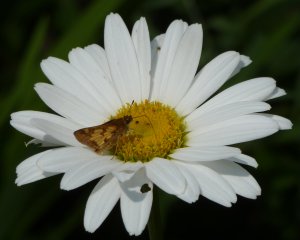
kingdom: Animalia
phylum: Arthropoda
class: Insecta
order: Lepidoptera
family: Hesperiidae
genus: Polites
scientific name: Polites coras
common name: Peck's Skipper
